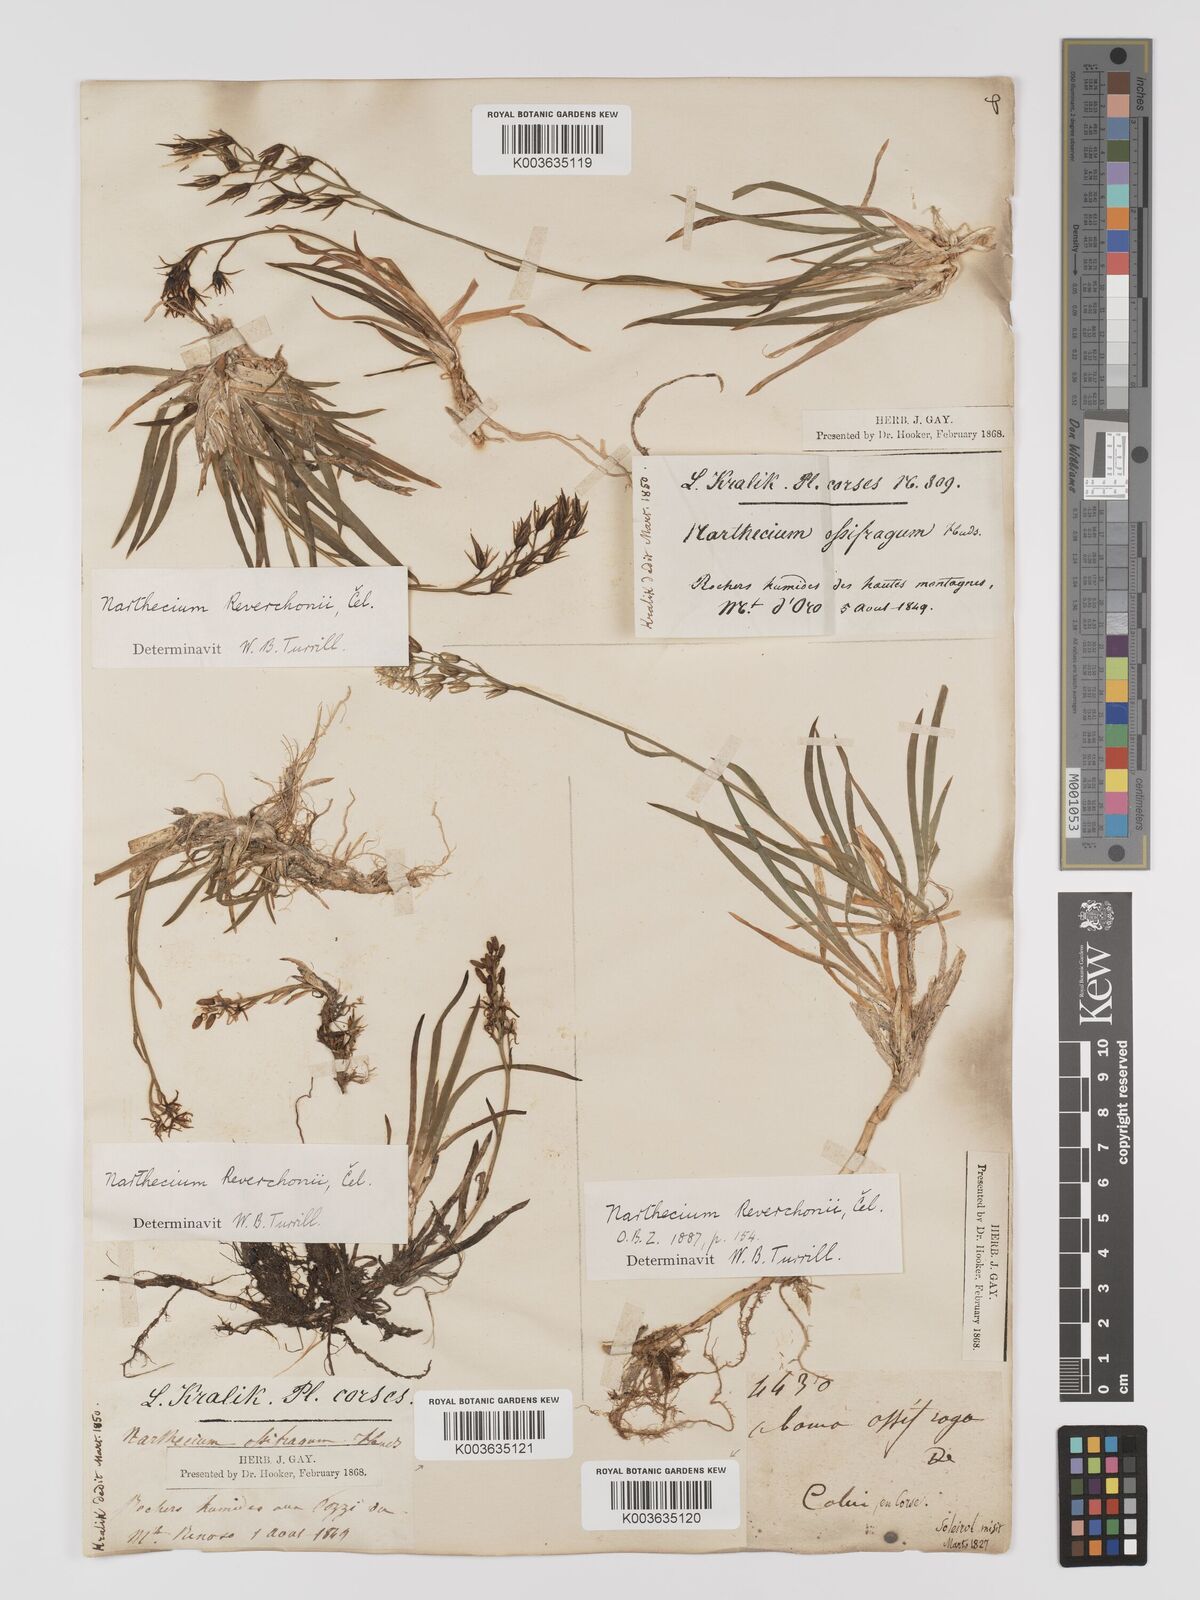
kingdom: Plantae
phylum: Tracheophyta
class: Liliopsida
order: Dioscoreales
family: Nartheciaceae
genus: Narthecium
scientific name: Narthecium reverchonii
